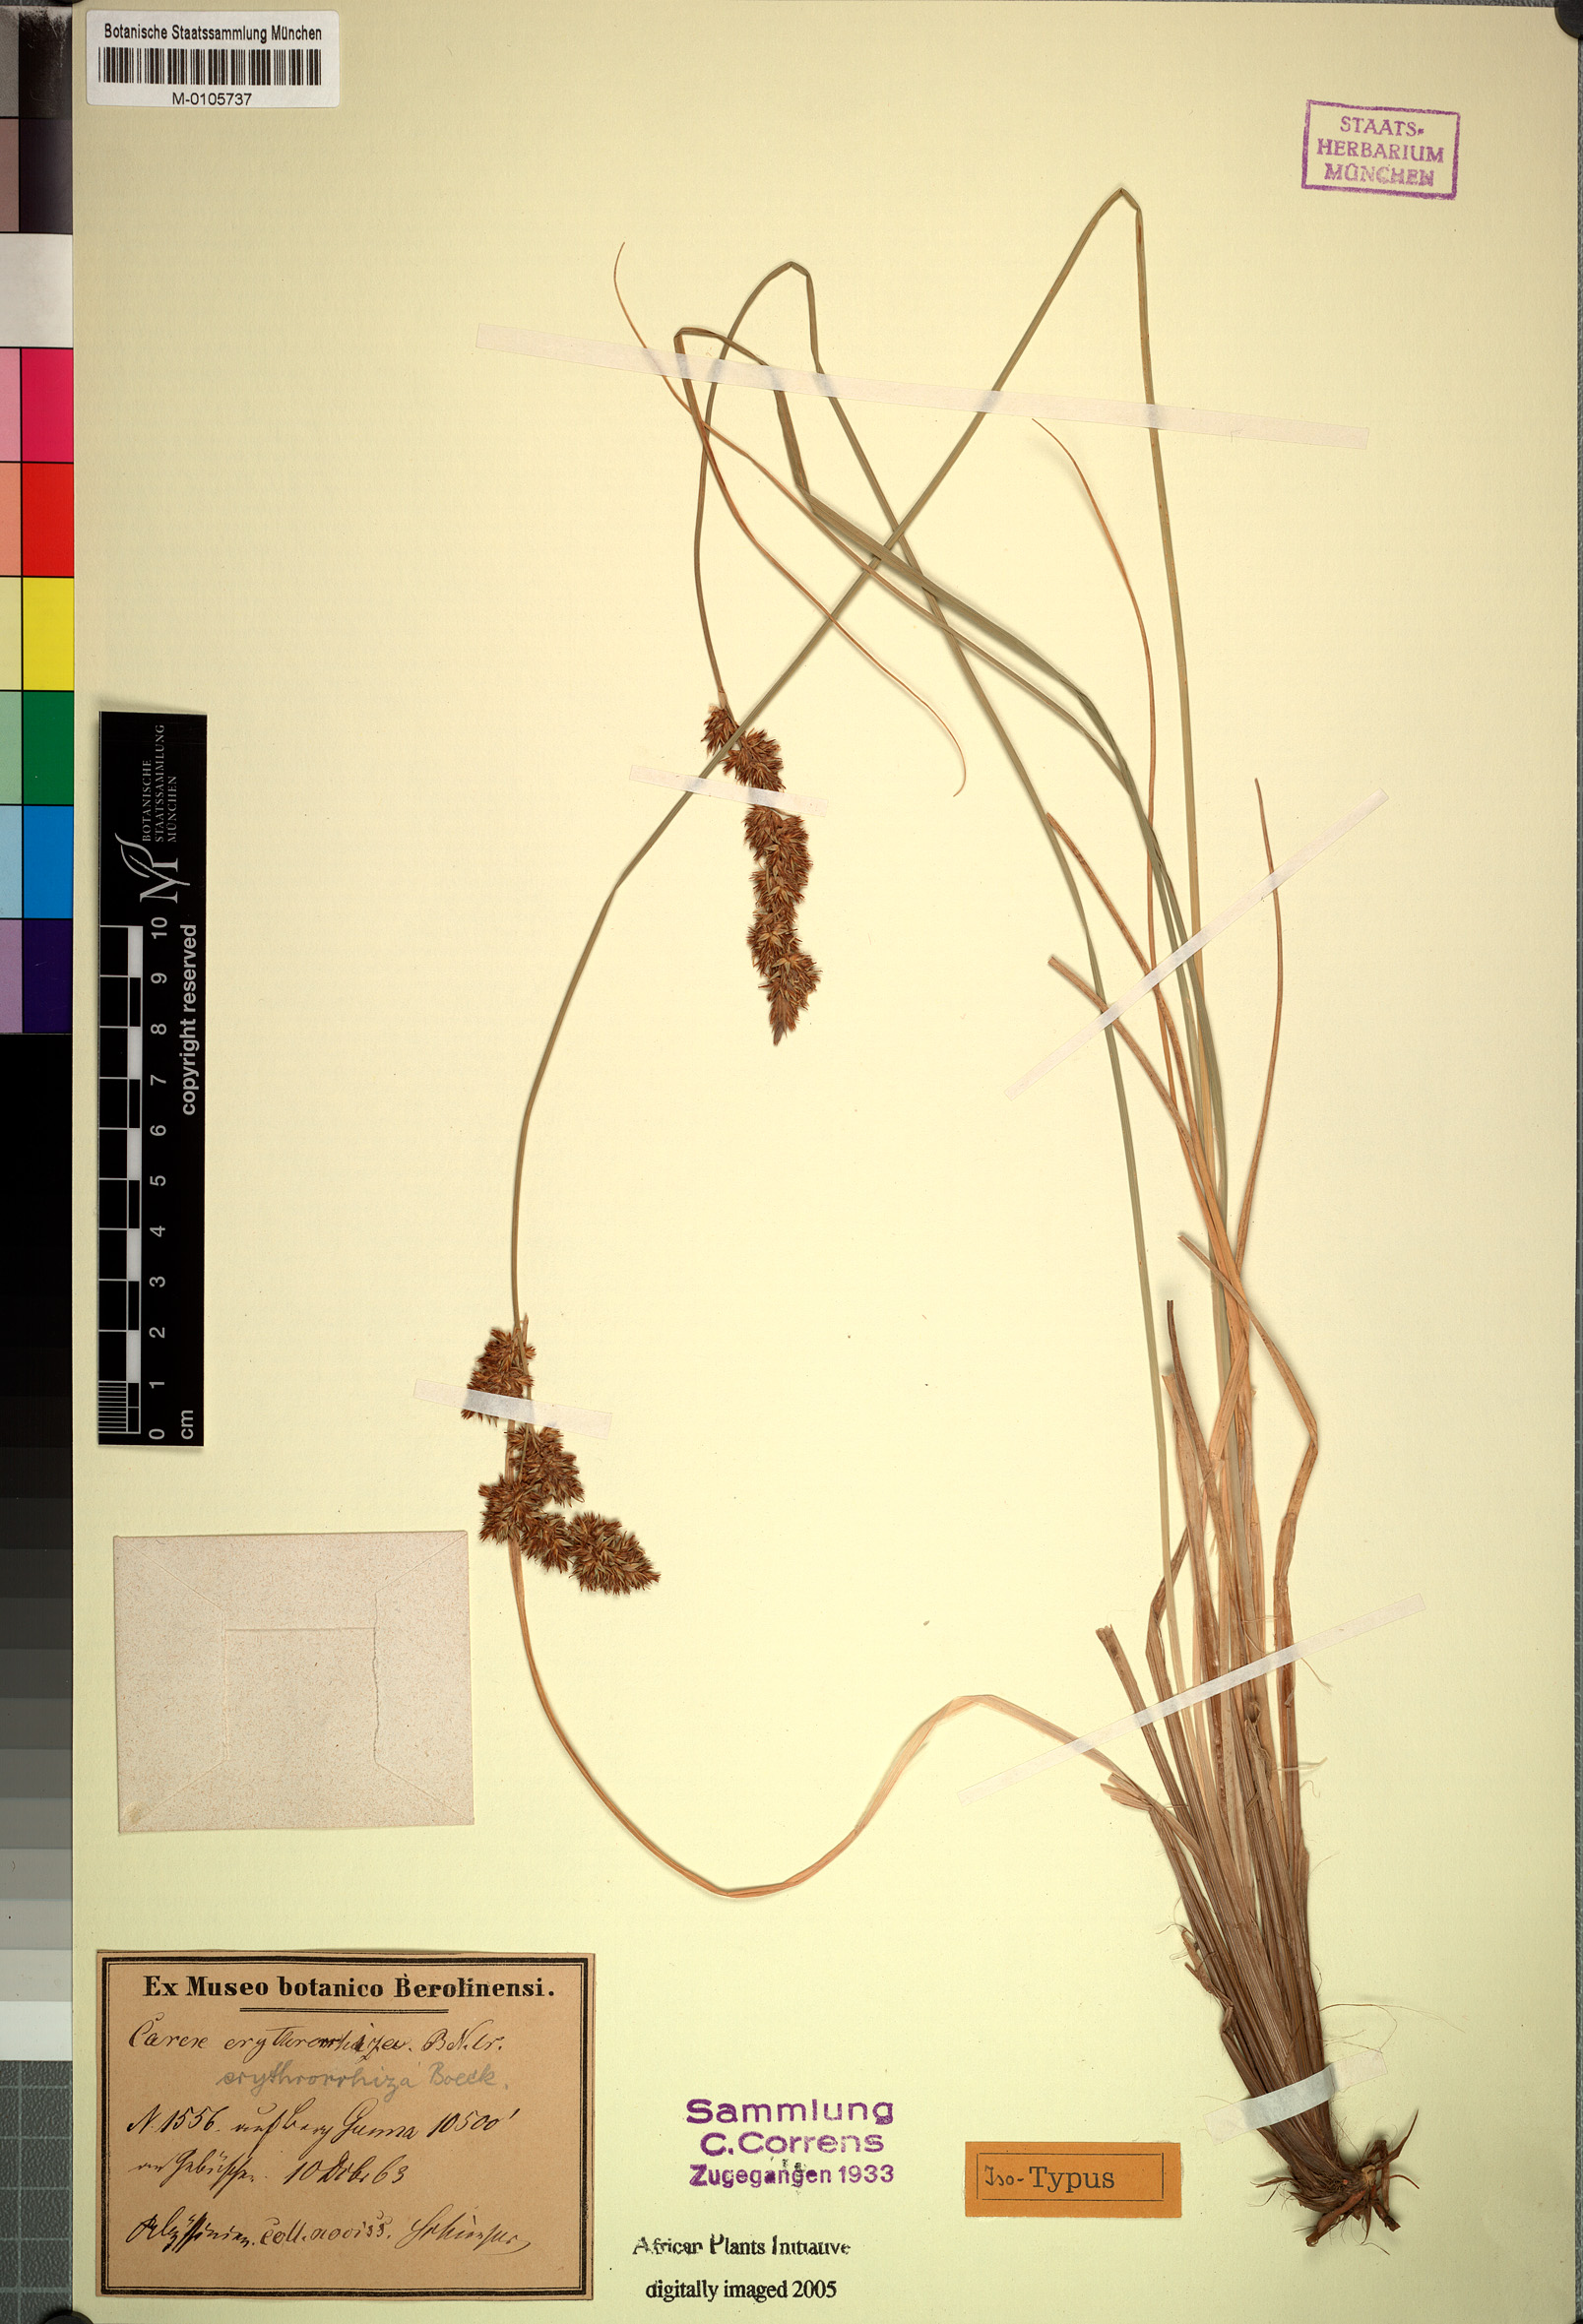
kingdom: Plantae
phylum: Tracheophyta
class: Liliopsida
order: Poales
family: Cyperaceae
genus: Carex
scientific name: Carex erythrorrhiza
